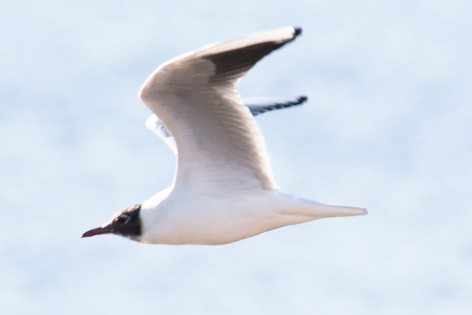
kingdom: Animalia
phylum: Chordata
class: Aves
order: Charadriiformes
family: Laridae
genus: Chroicocephalus
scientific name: Chroicocephalus ridibundus
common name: Hættemåge
